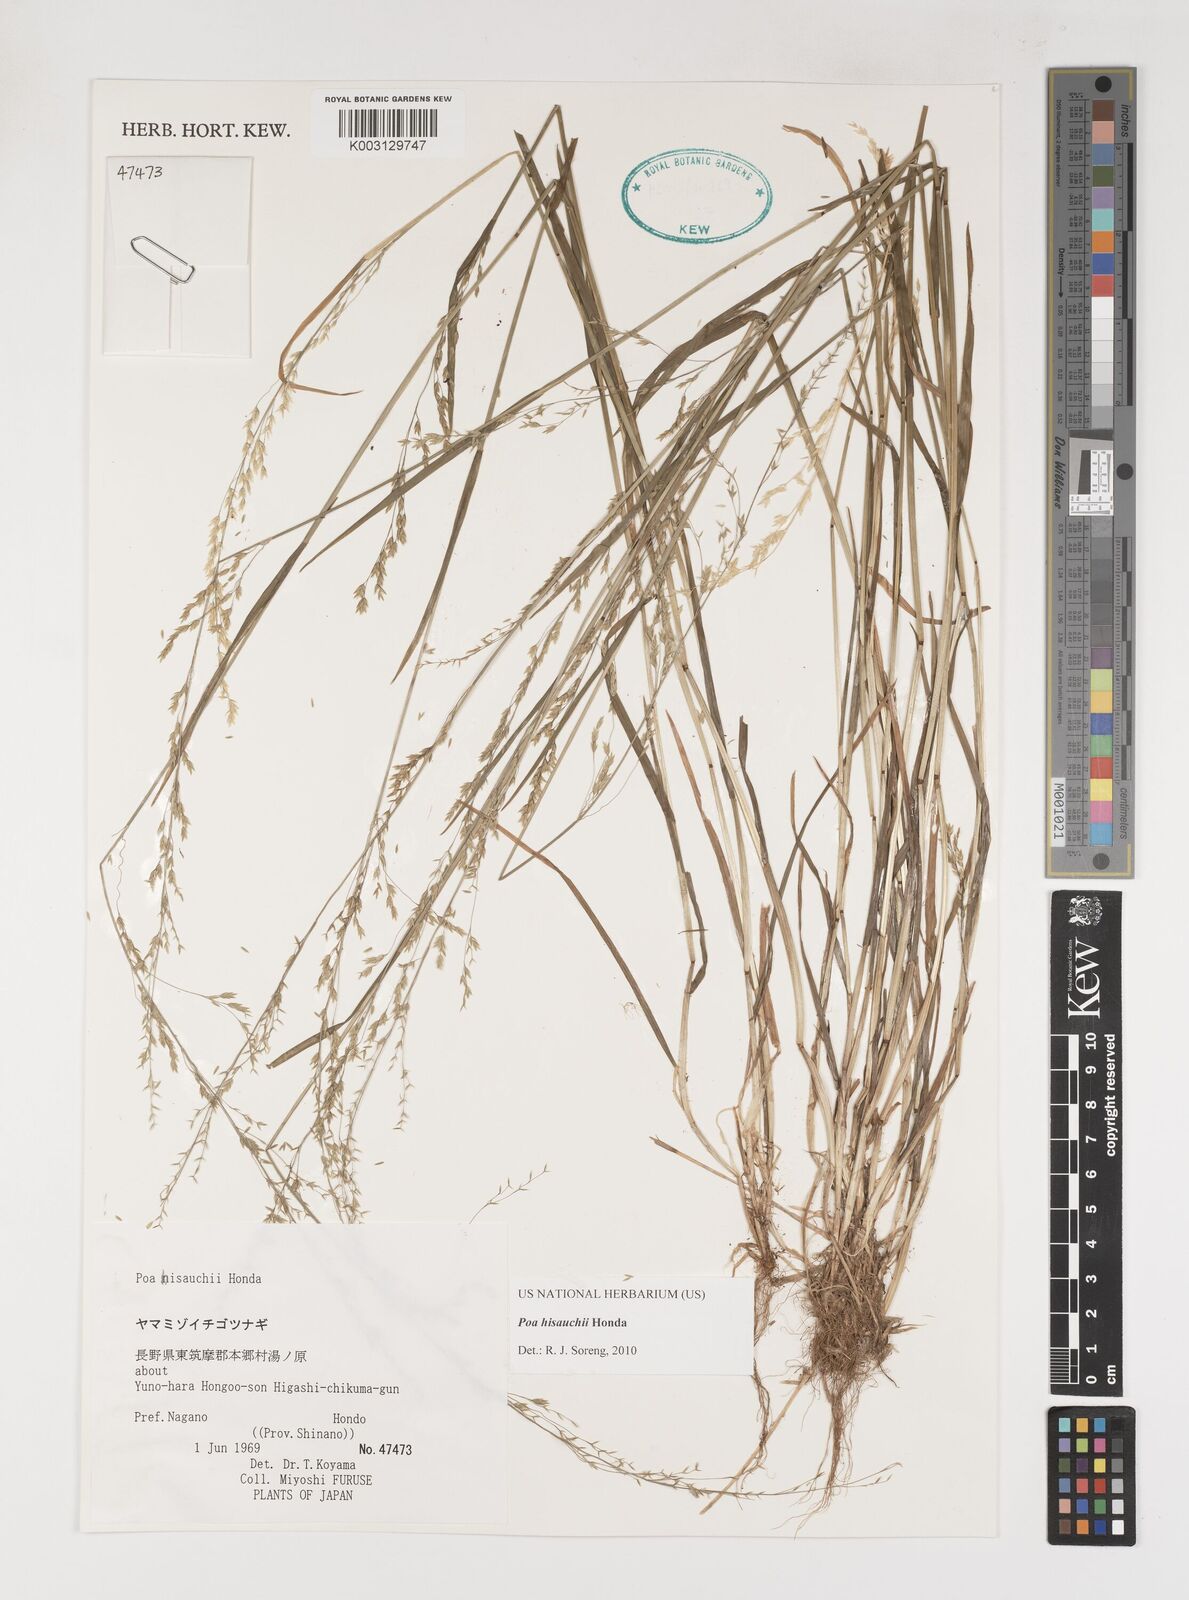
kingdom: Plantae
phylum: Tracheophyta
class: Liliopsida
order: Poales
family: Poaceae
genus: Poa
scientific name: Poa hisauchii
